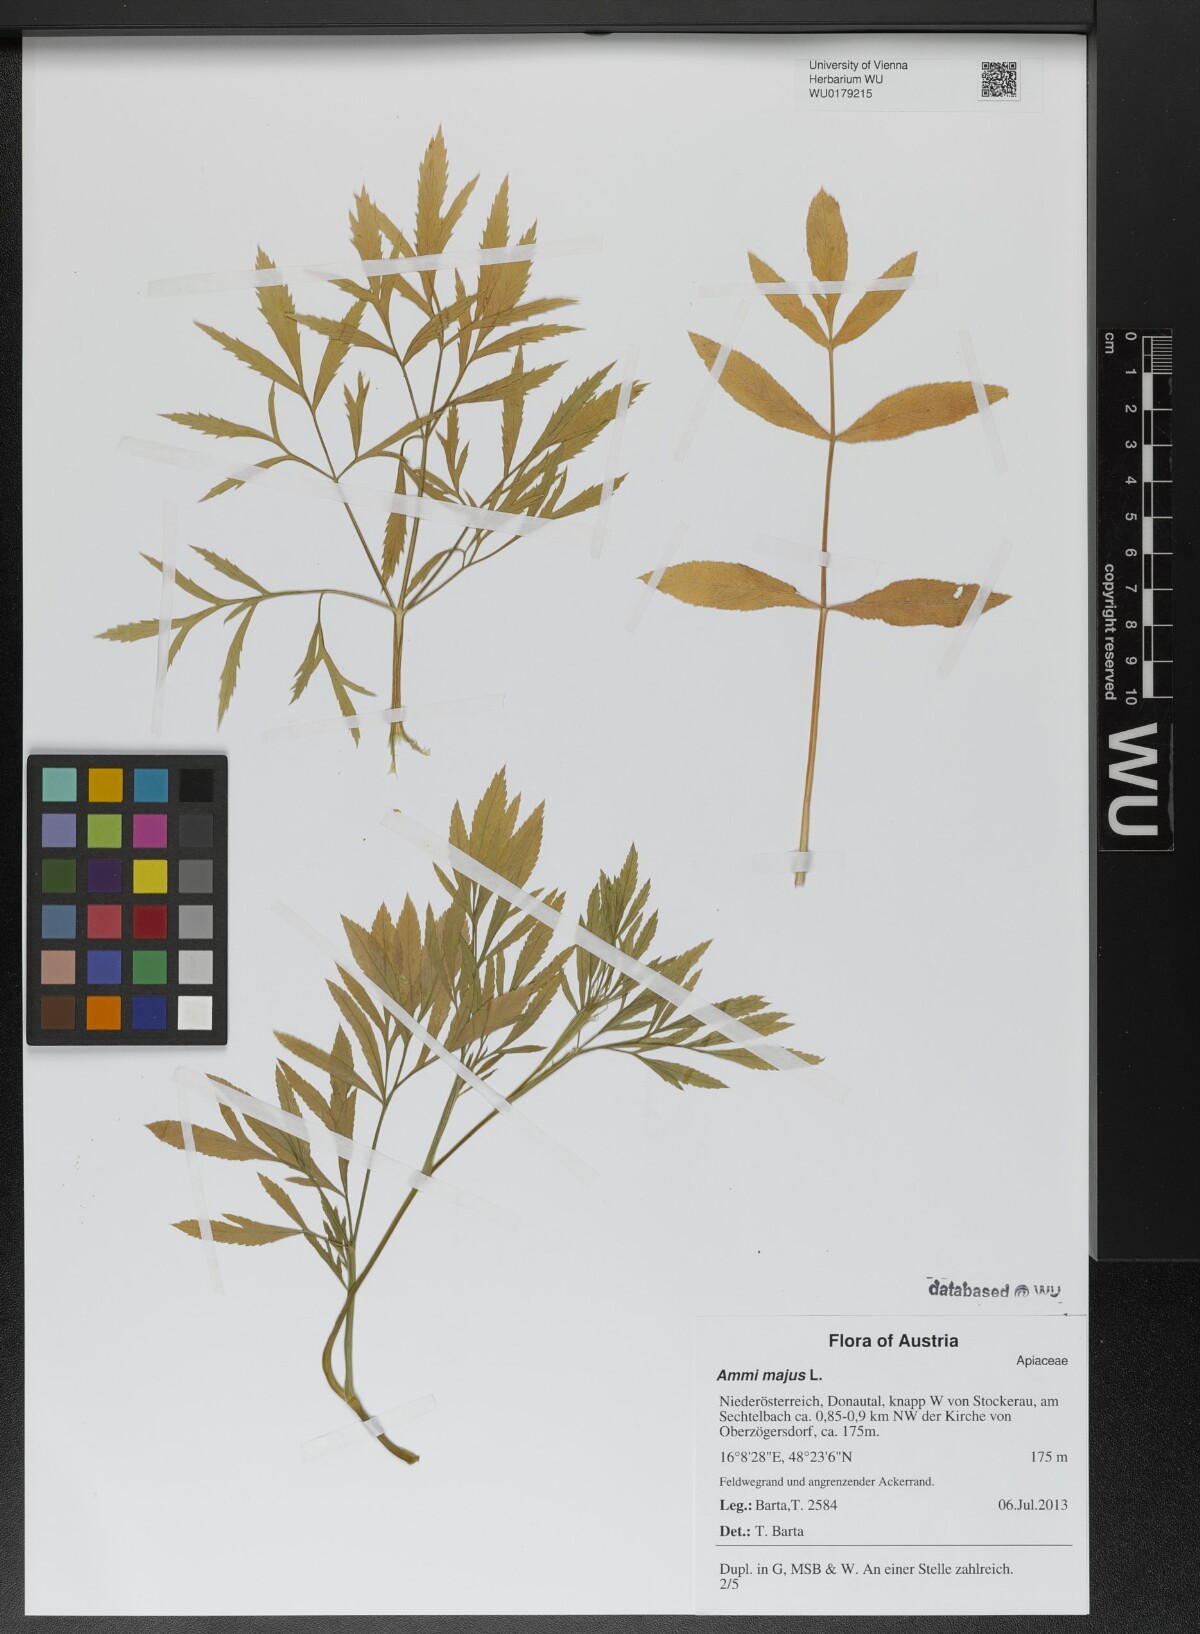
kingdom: Plantae
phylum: Tracheophyta
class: Magnoliopsida
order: Apiales
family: Apiaceae
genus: Ammi
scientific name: Ammi majus
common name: Bullwort
